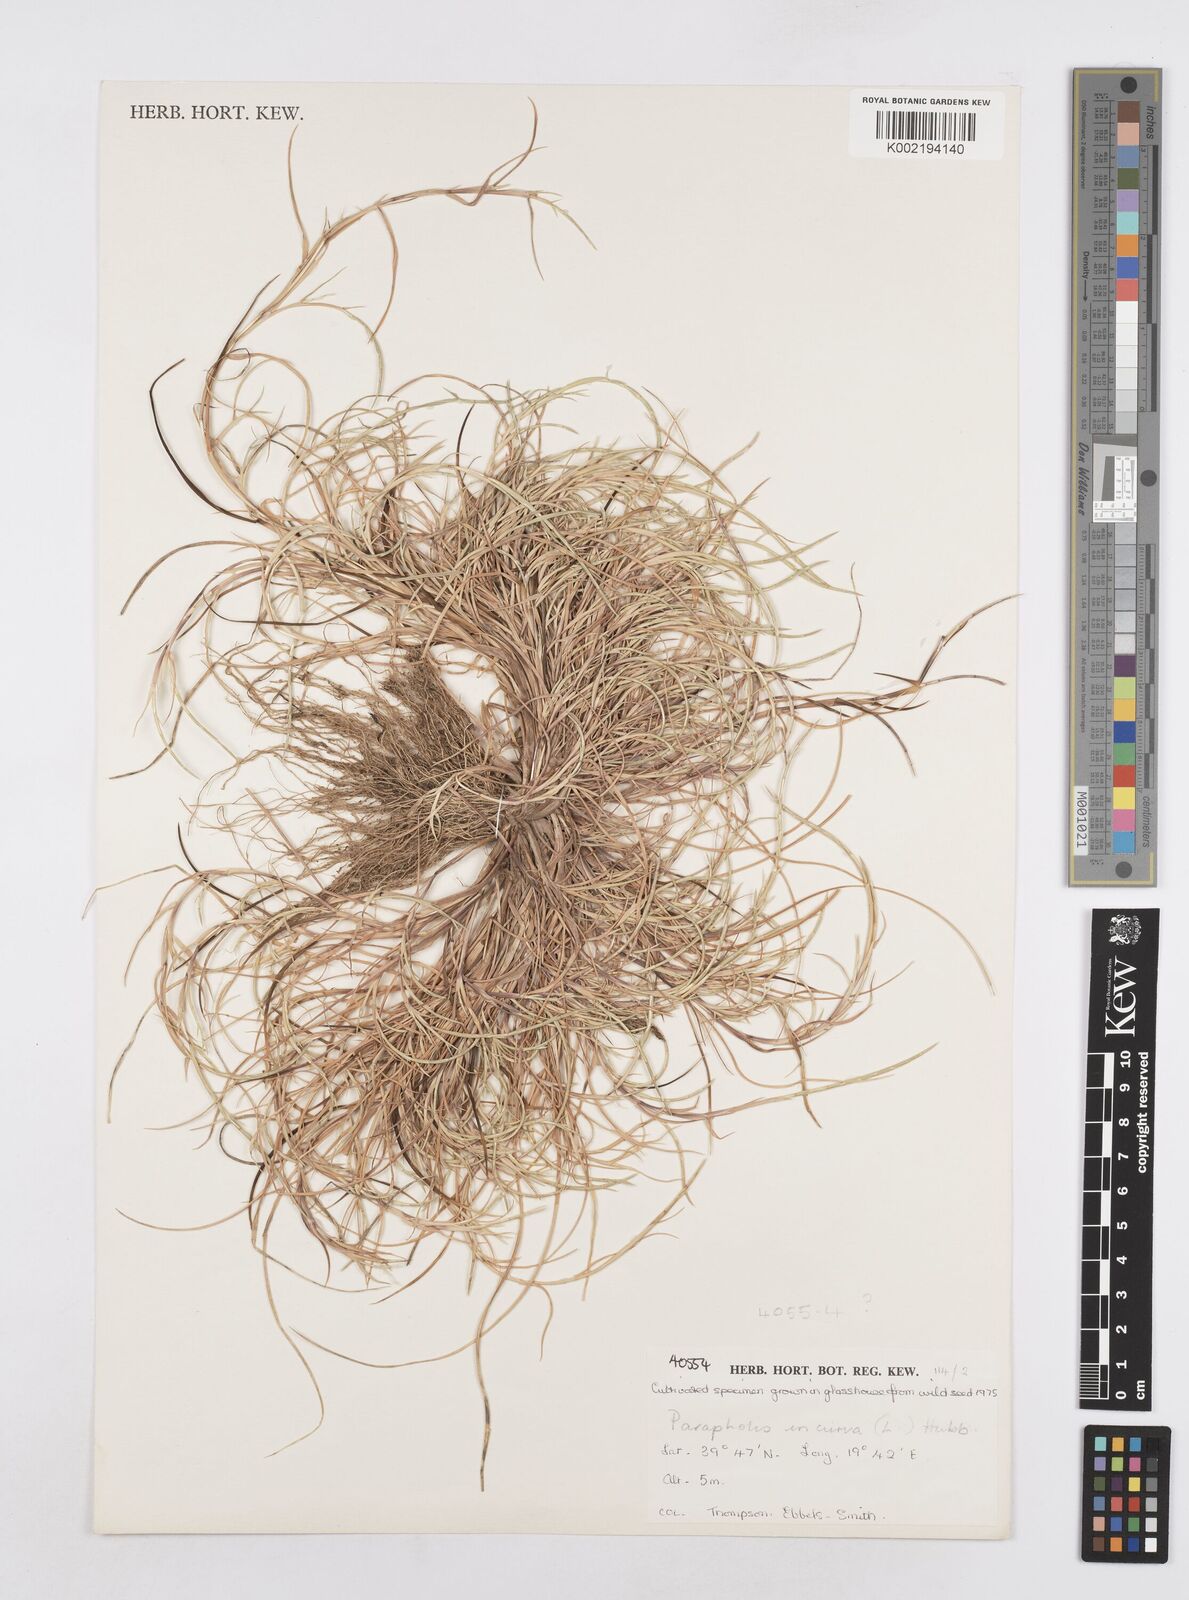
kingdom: Plantae
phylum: Tracheophyta
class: Liliopsida
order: Poales
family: Poaceae
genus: Parapholis
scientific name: Parapholis incurva
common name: Curved sicklegrass
